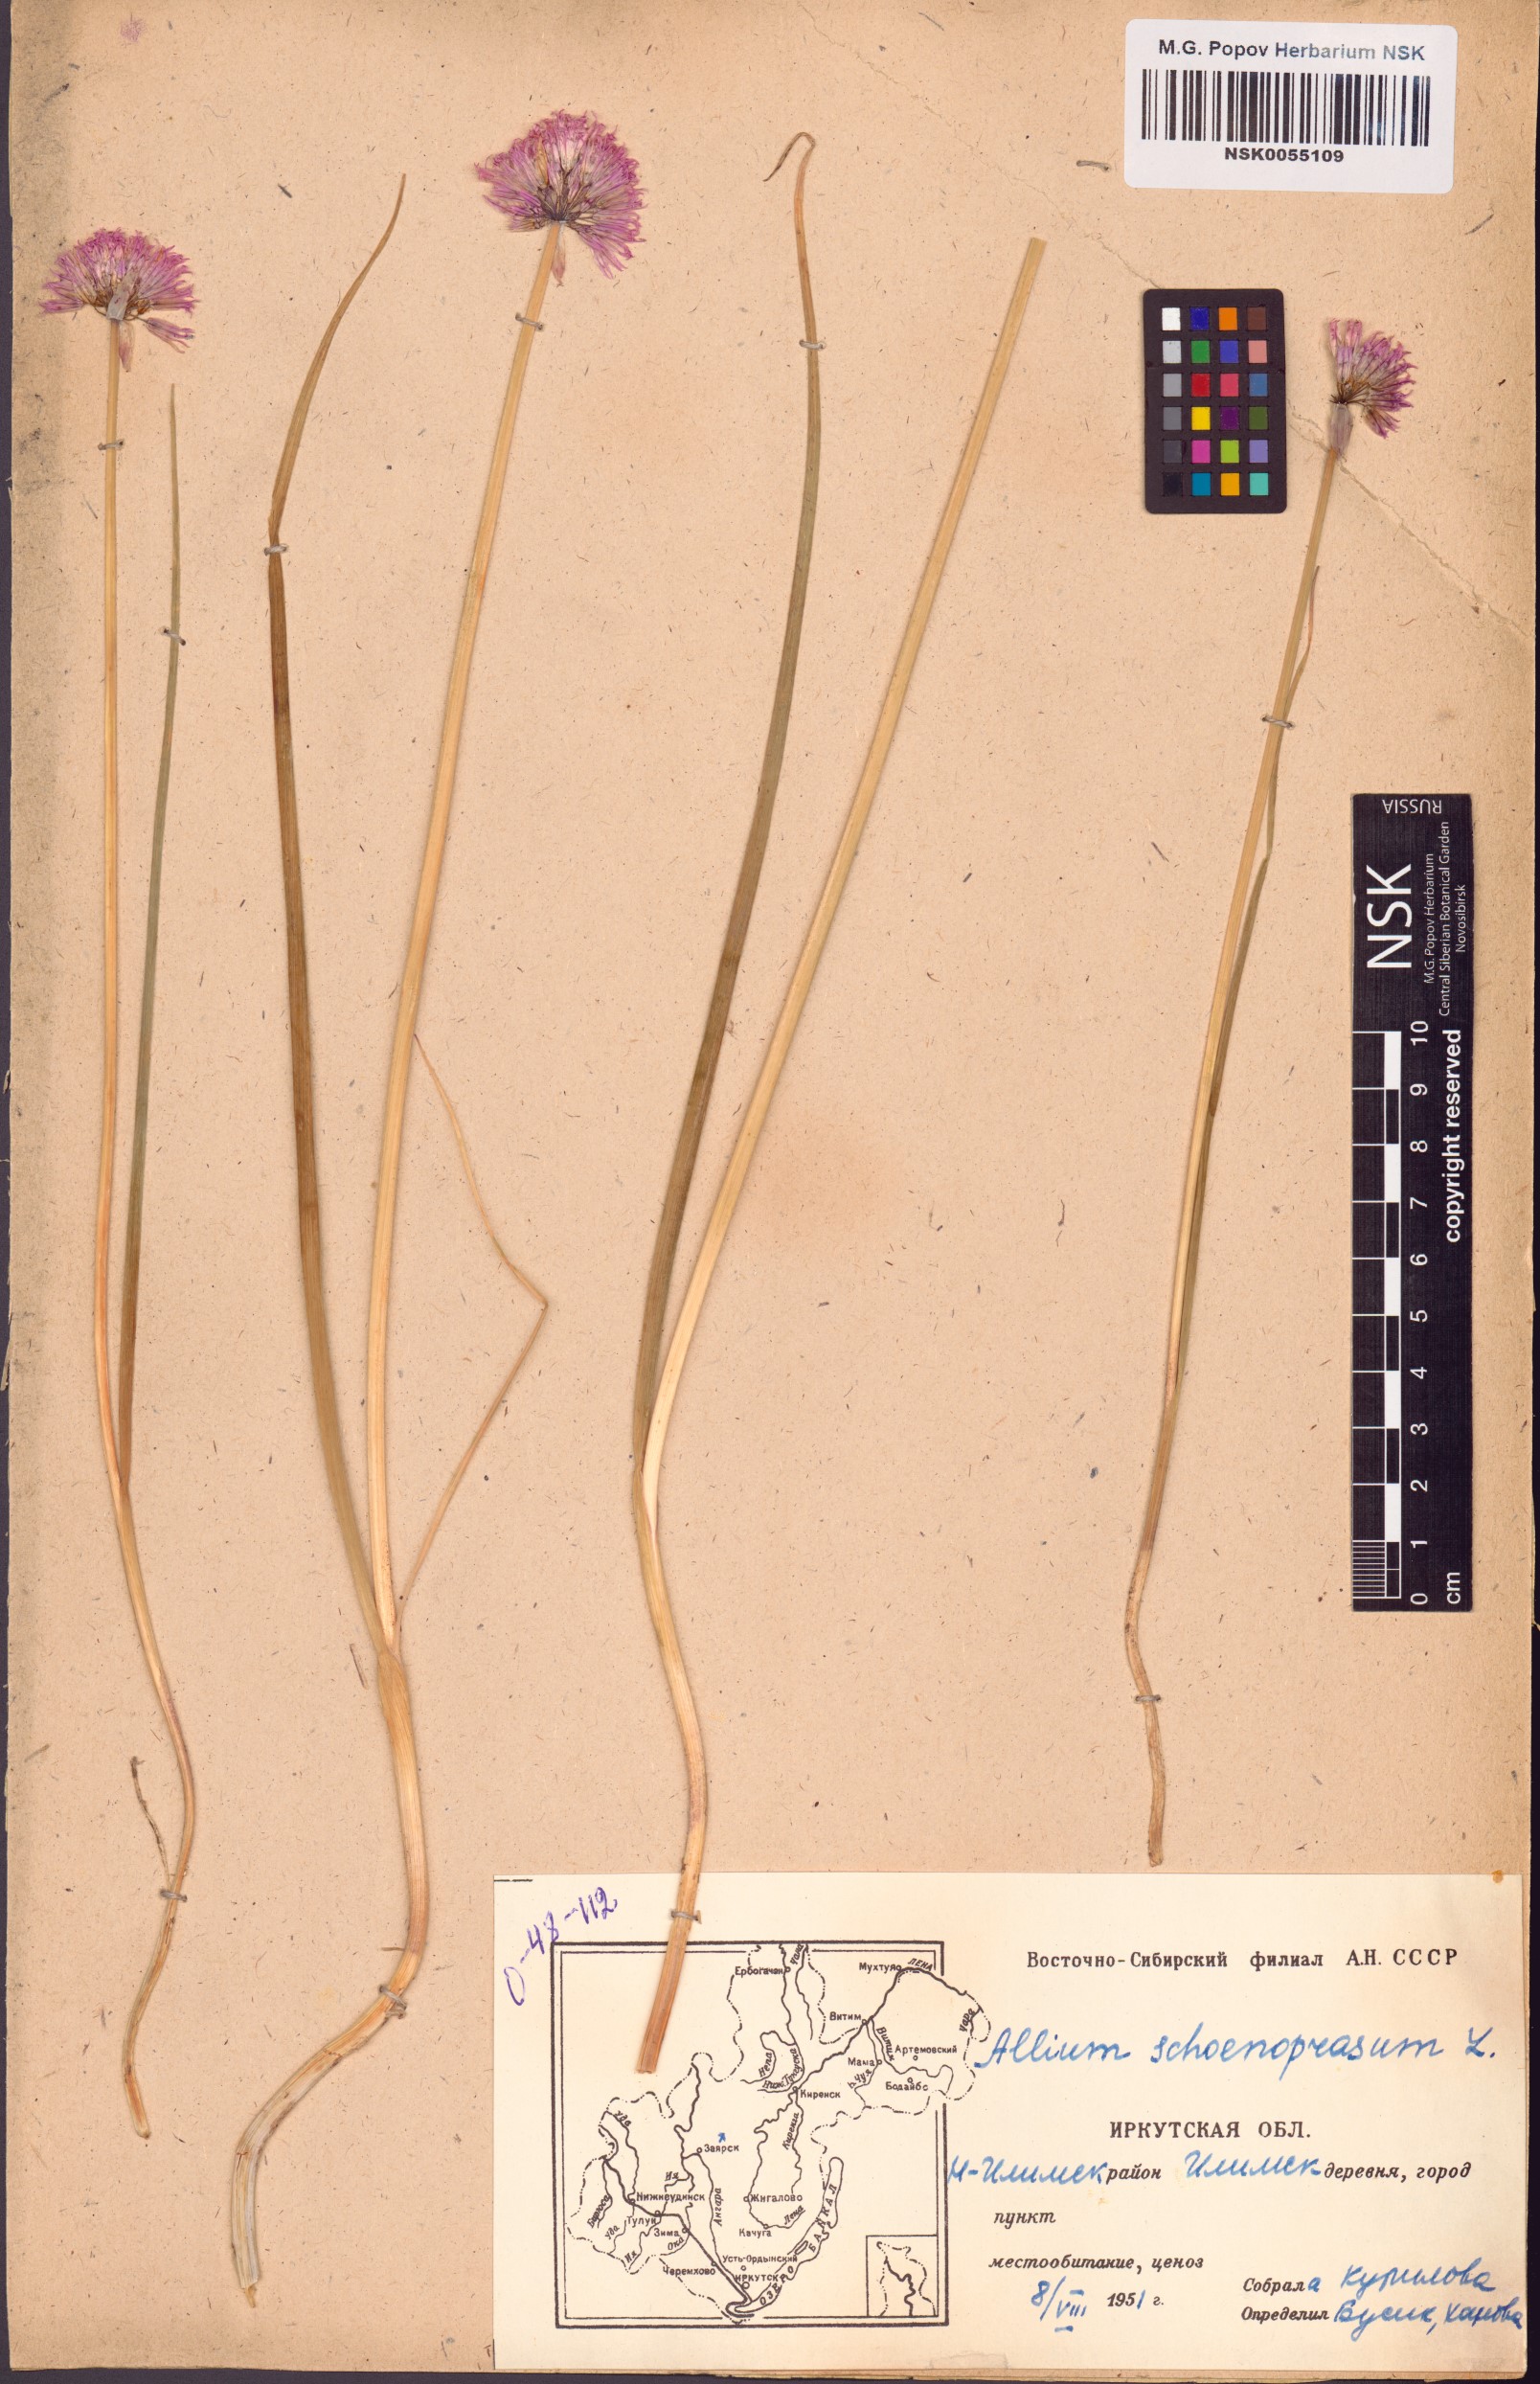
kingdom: Plantae
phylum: Tracheophyta
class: Liliopsida
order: Asparagales
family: Amaryllidaceae
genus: Allium
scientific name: Allium schoenoprasum
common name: Chives
